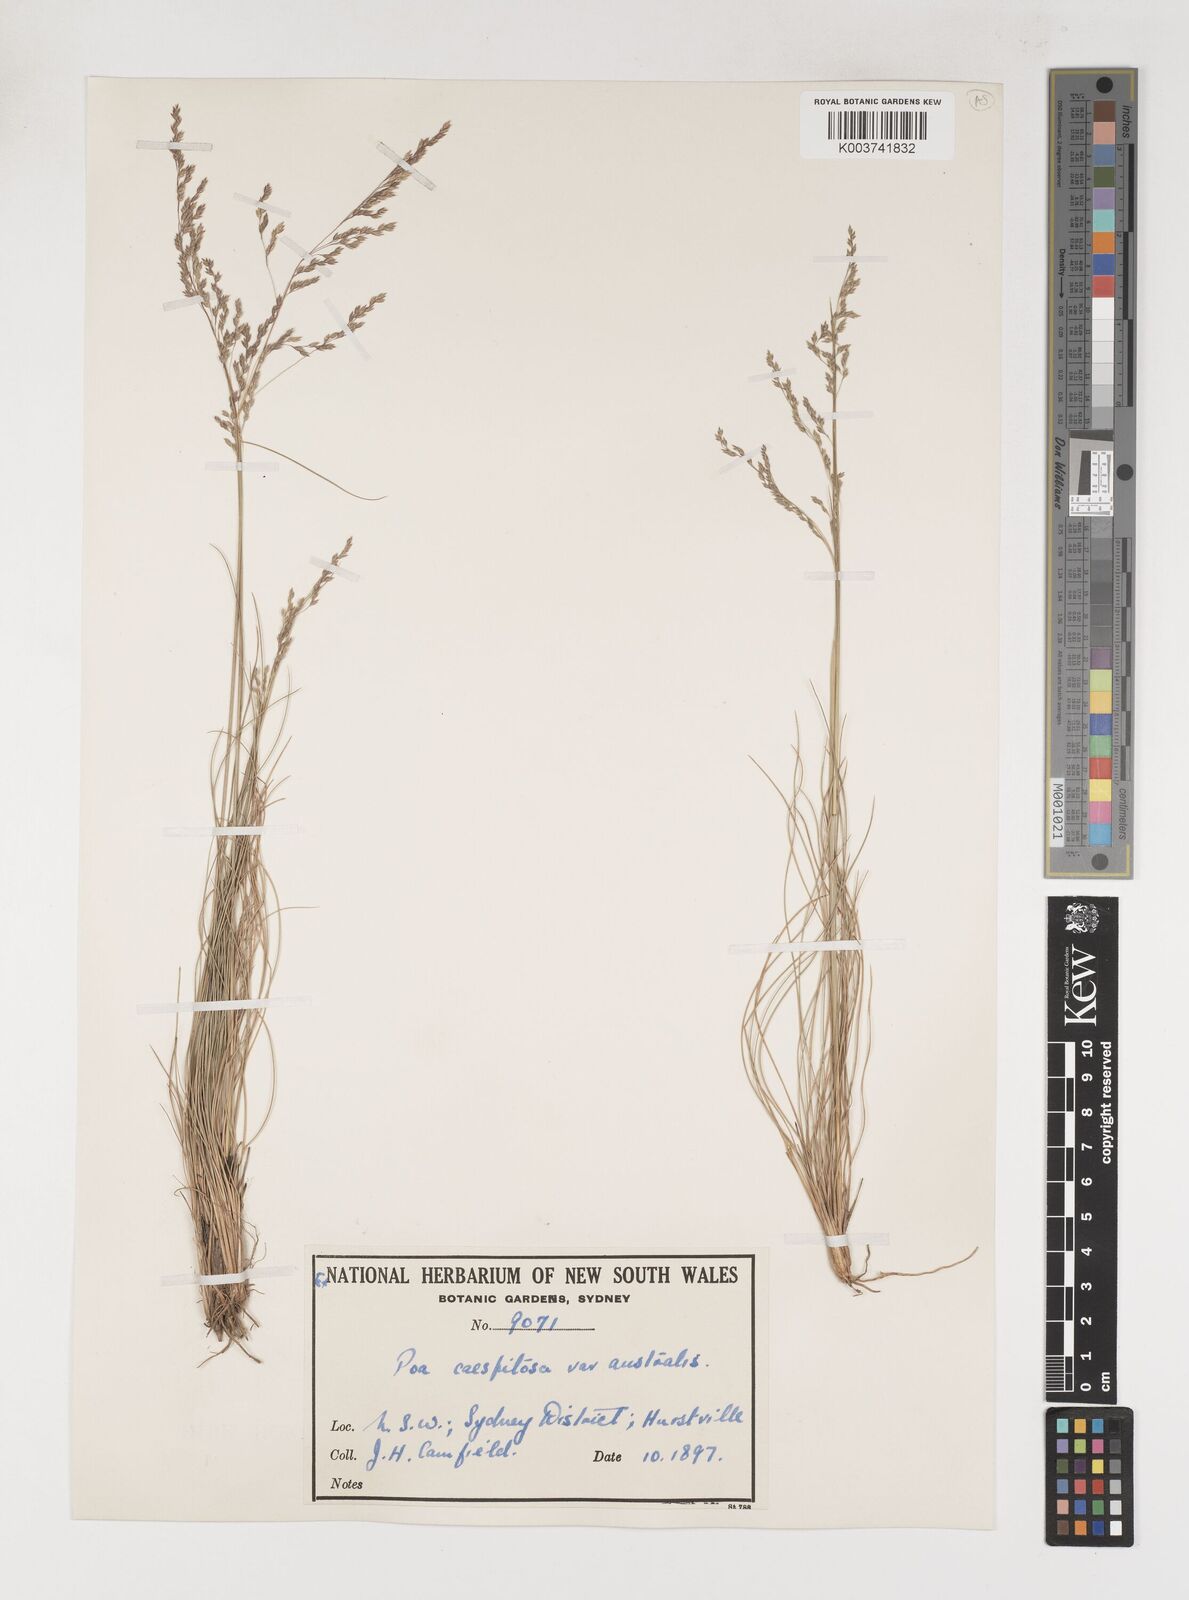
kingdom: Plantae
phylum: Tracheophyta
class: Liliopsida
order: Poales
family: Poaceae
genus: Poa
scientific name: Poa sieberiana
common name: Tussock poa
